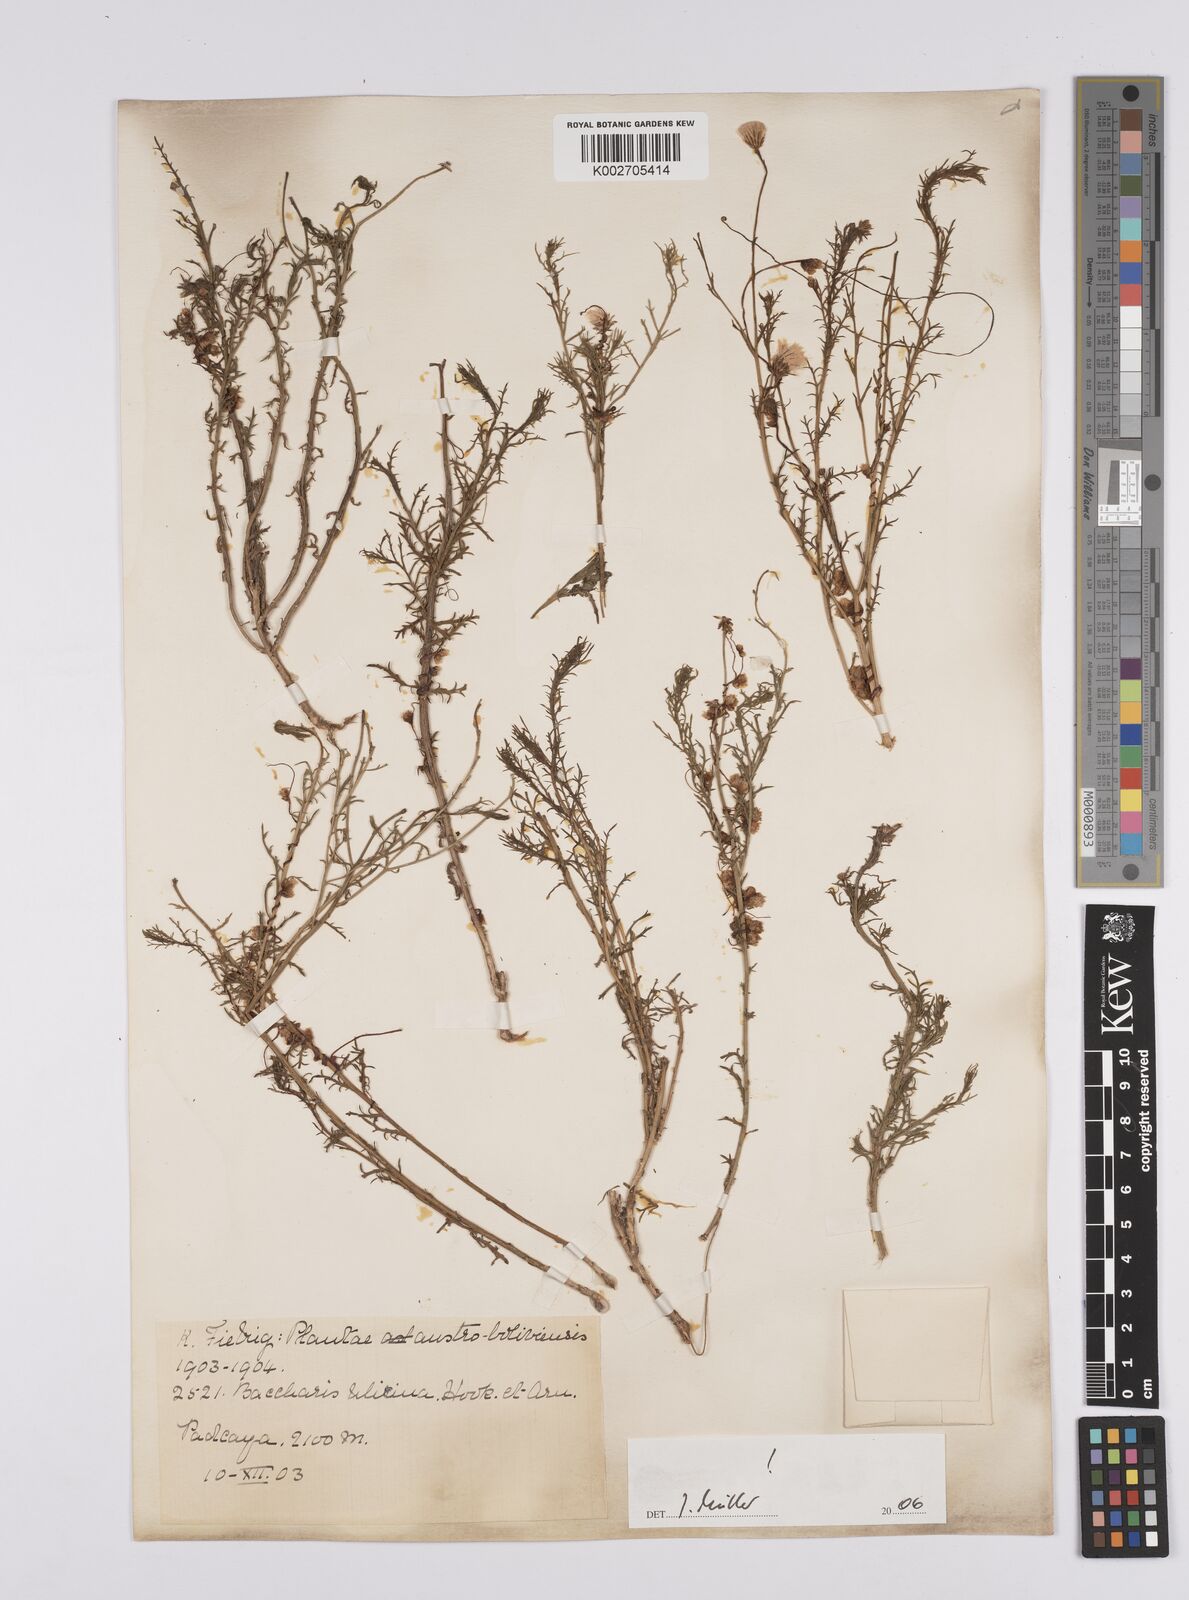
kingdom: Plantae
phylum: Tracheophyta
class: Magnoliopsida
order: Asterales
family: Asteraceae
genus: Baccharis
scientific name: Baccharis ulicina
